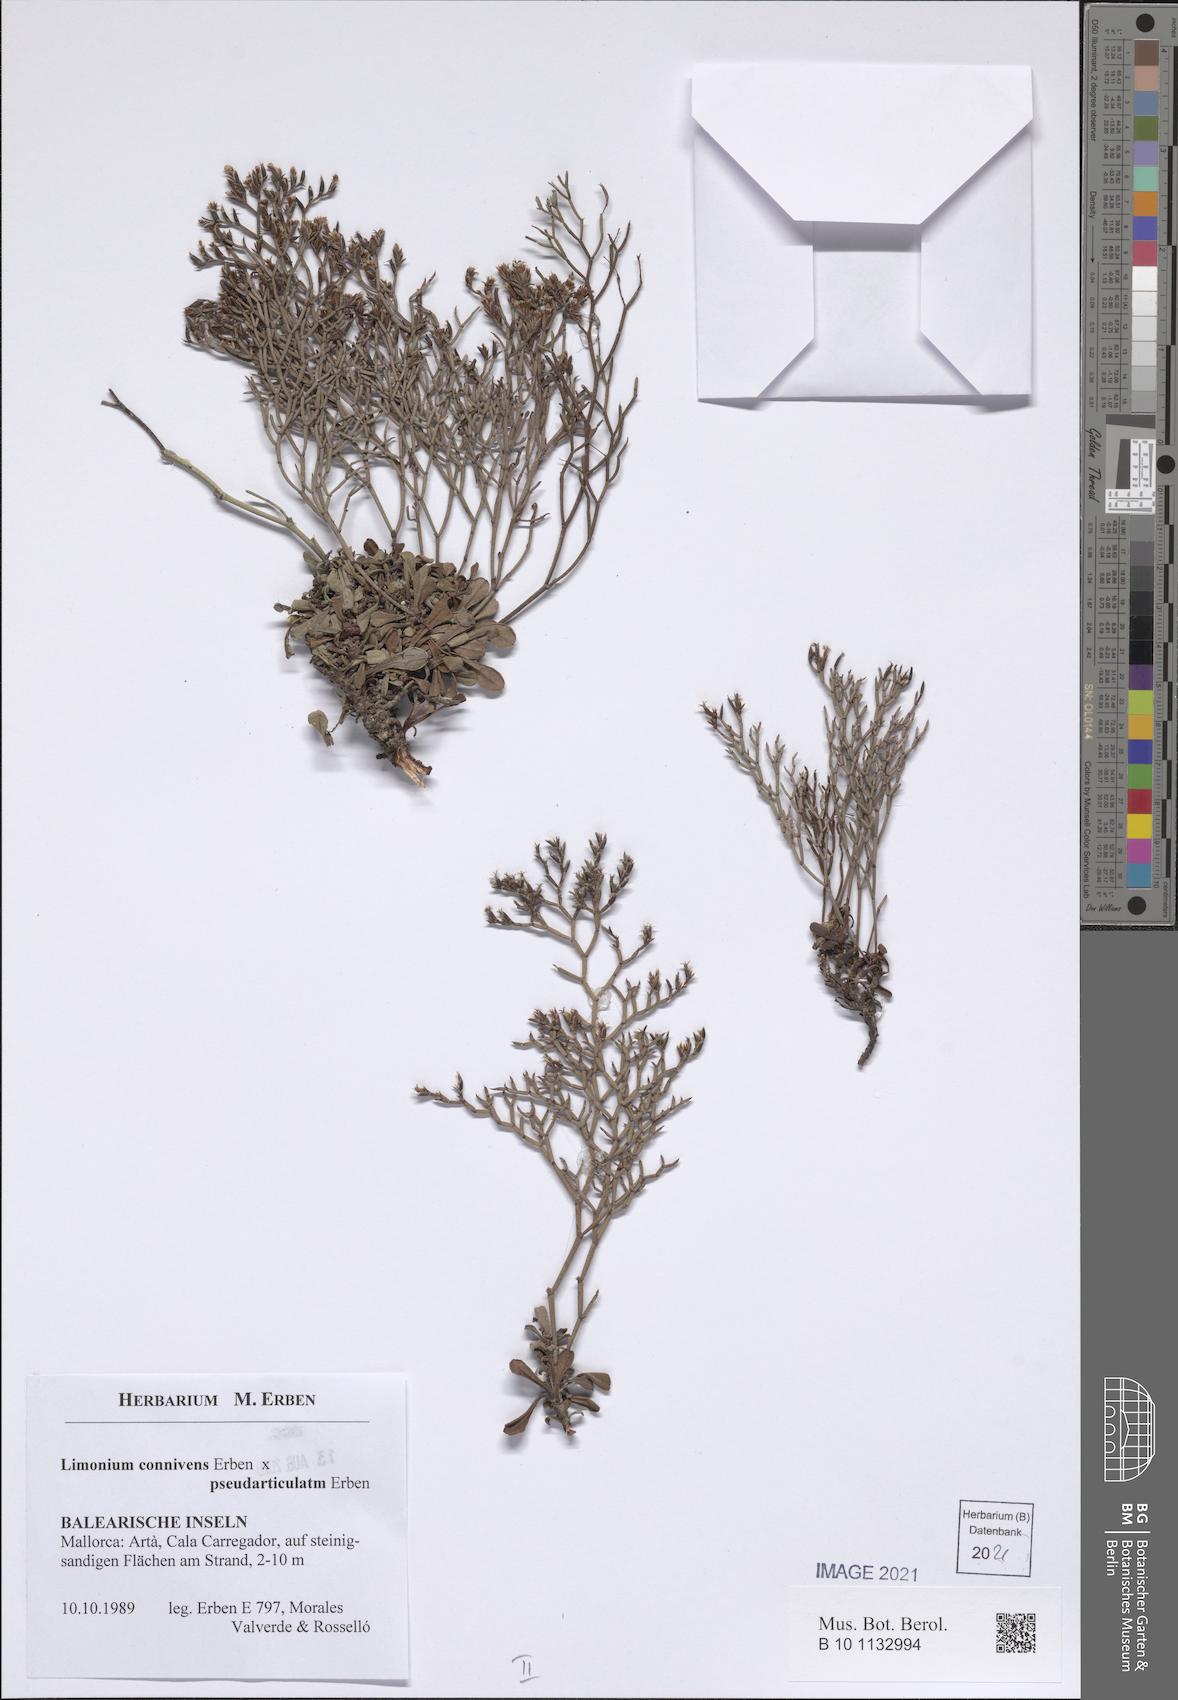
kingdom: Plantae
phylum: Tracheophyta
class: Magnoliopsida
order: Caryophyllales
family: Plumbaginaceae
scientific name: Plumbaginaceae
